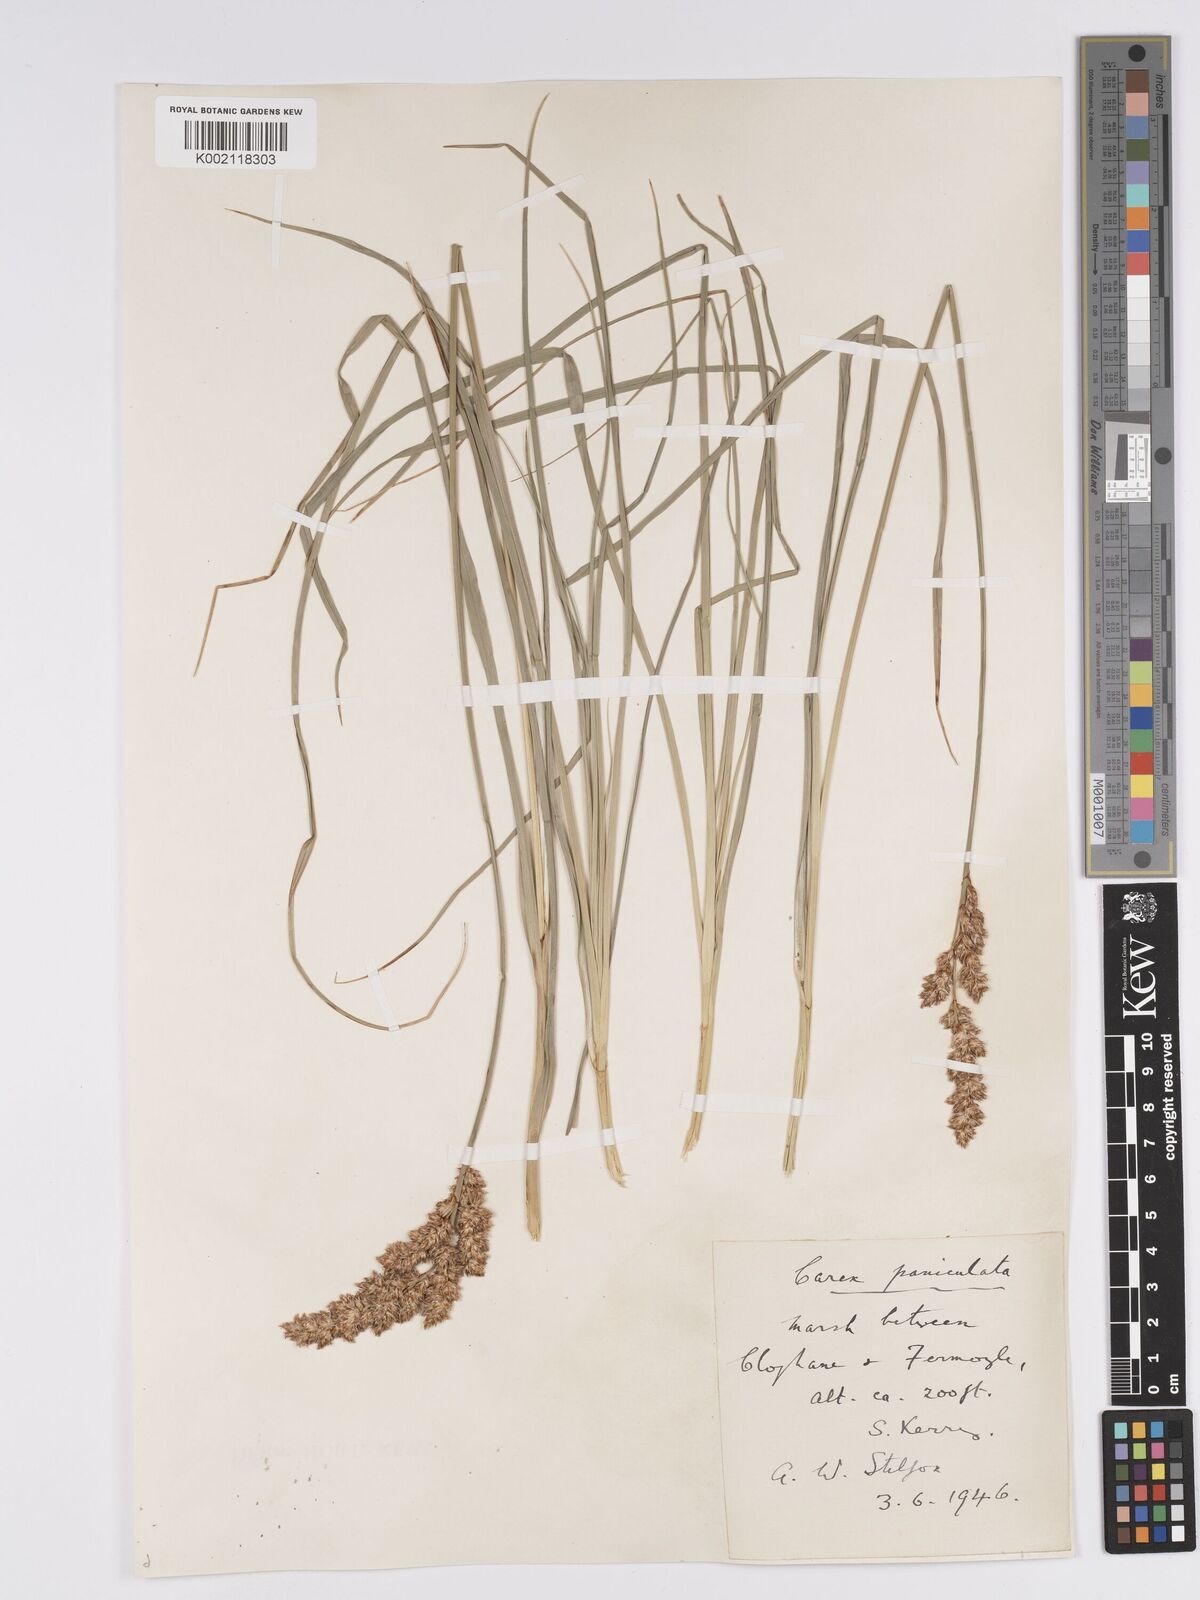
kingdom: Plantae
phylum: Tracheophyta
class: Liliopsida
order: Poales
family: Cyperaceae
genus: Carex
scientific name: Carex paniculata
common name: Greater tussock-sedge
